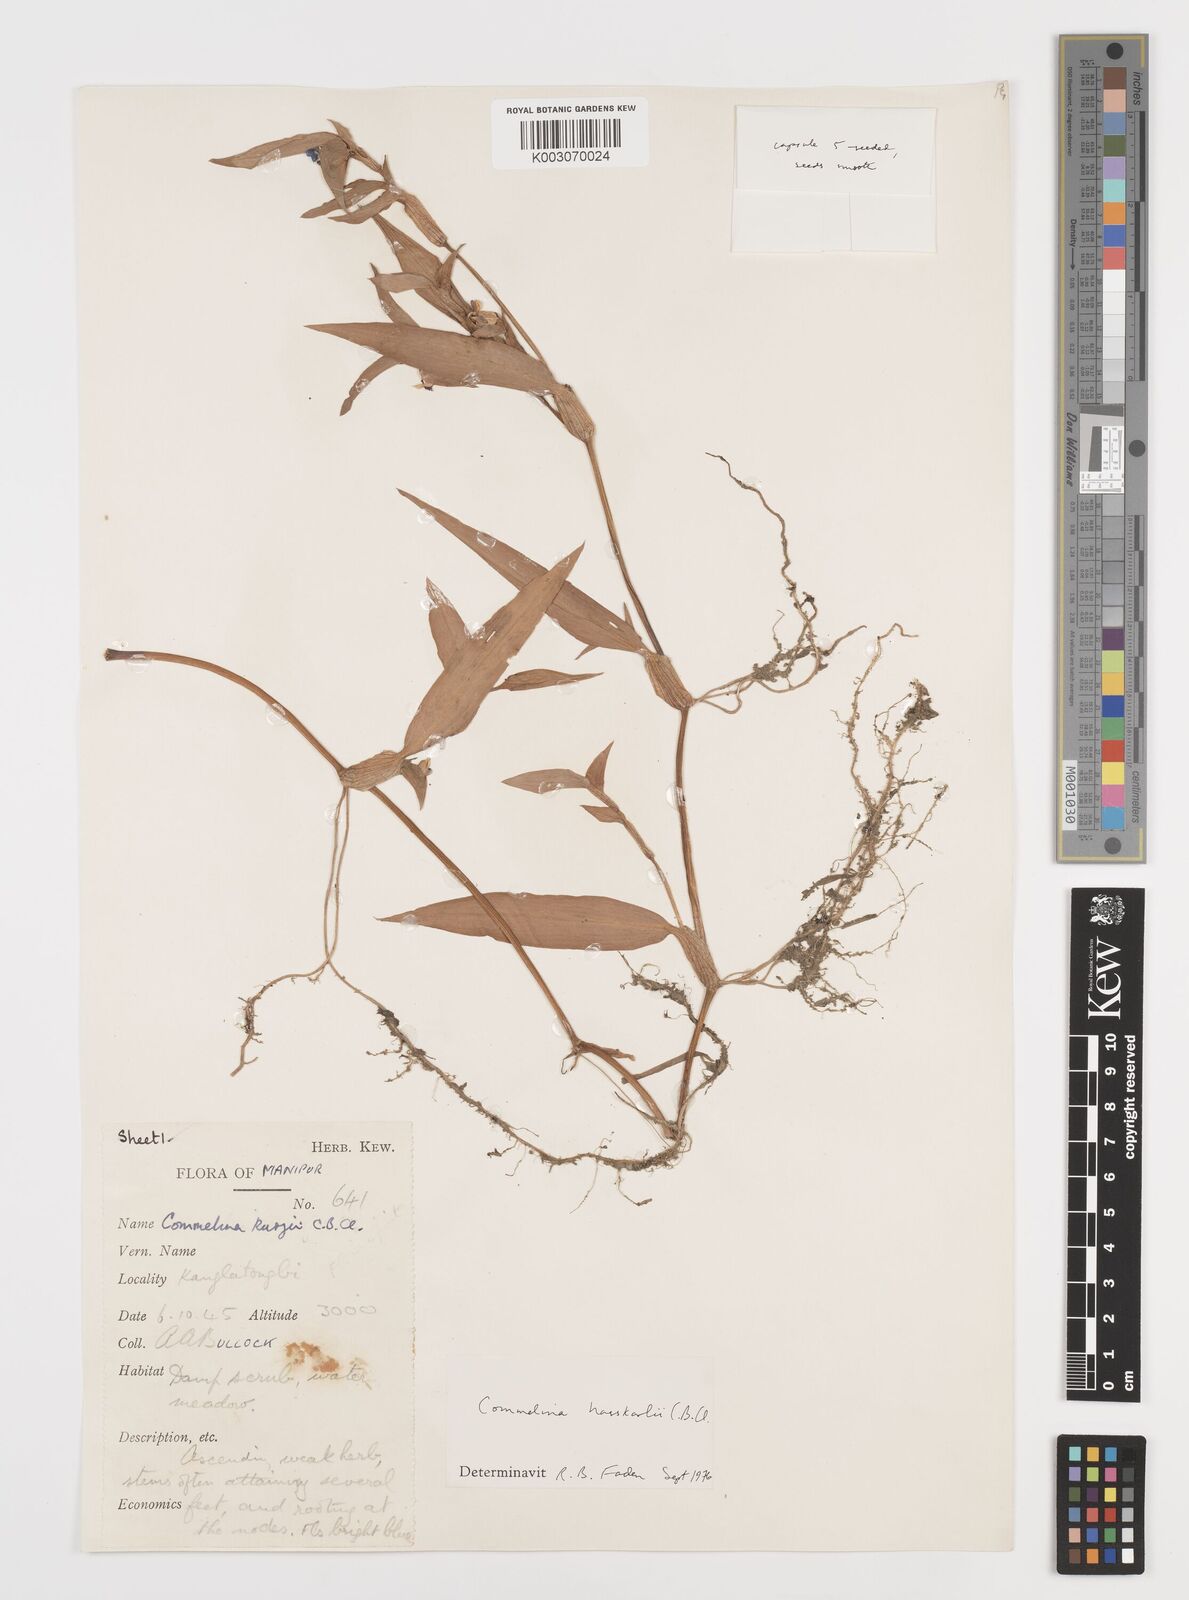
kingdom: Plantae
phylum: Tracheophyta
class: Liliopsida
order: Commelinales
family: Commelinaceae
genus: Commelina
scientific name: Commelina caroliniana
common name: Carolina dayflower
